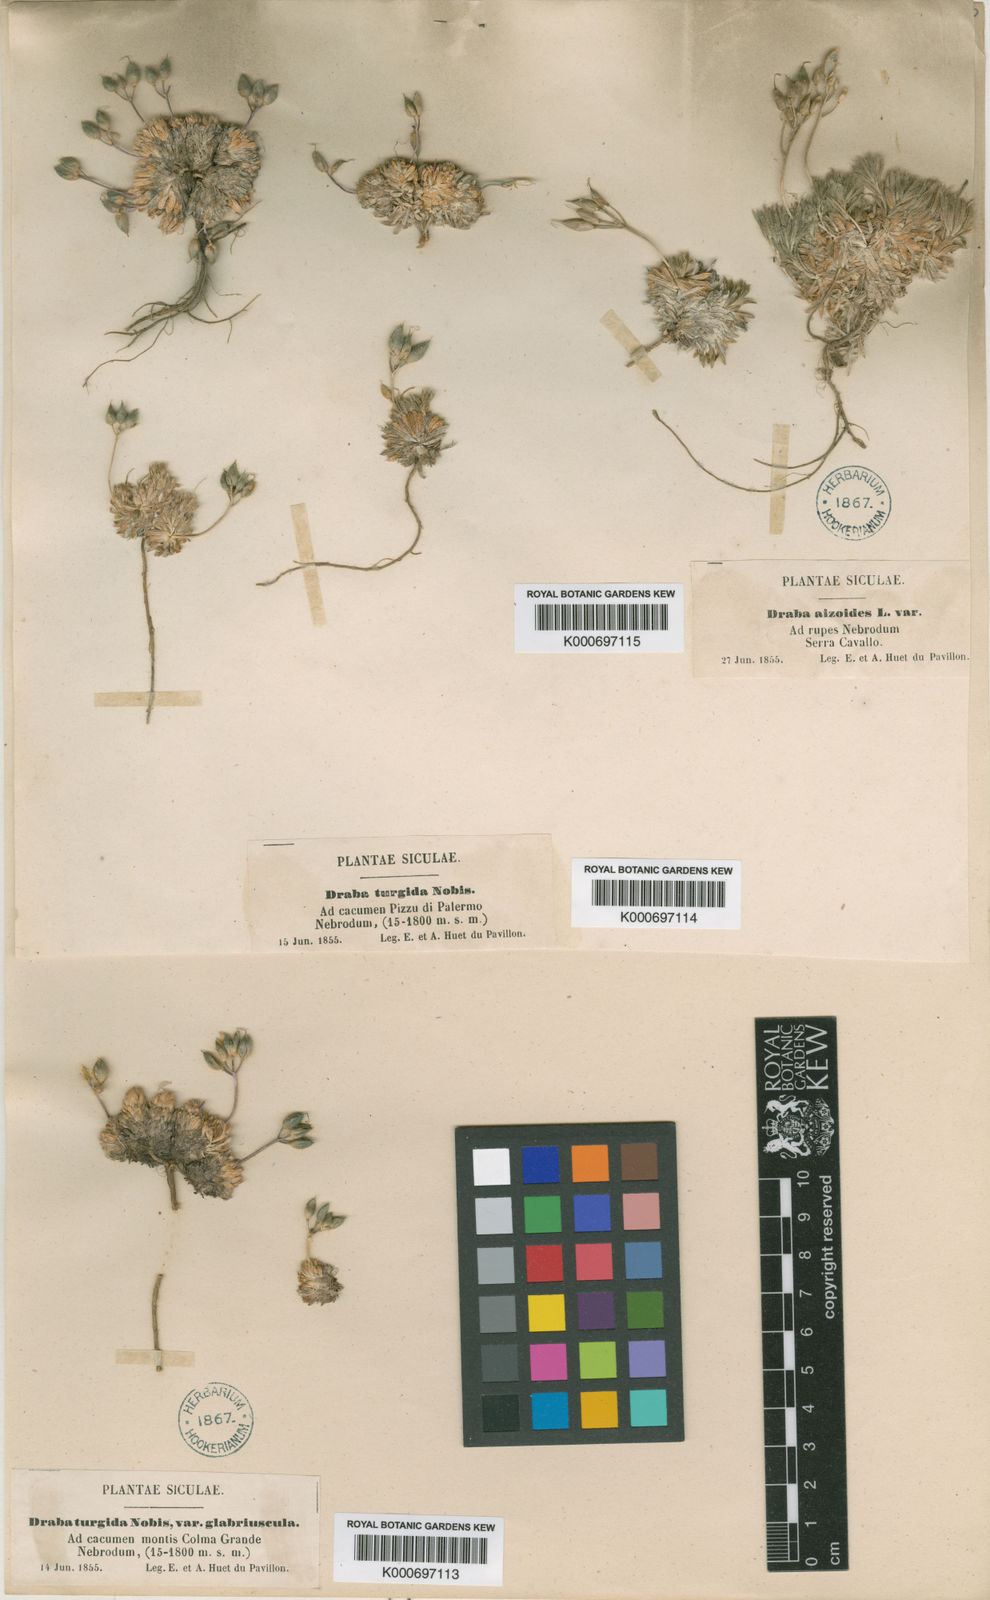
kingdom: Plantae
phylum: Tracheophyta
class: Magnoliopsida
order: Brassicales
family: Brassicaceae
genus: Draba
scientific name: Draba aspera
